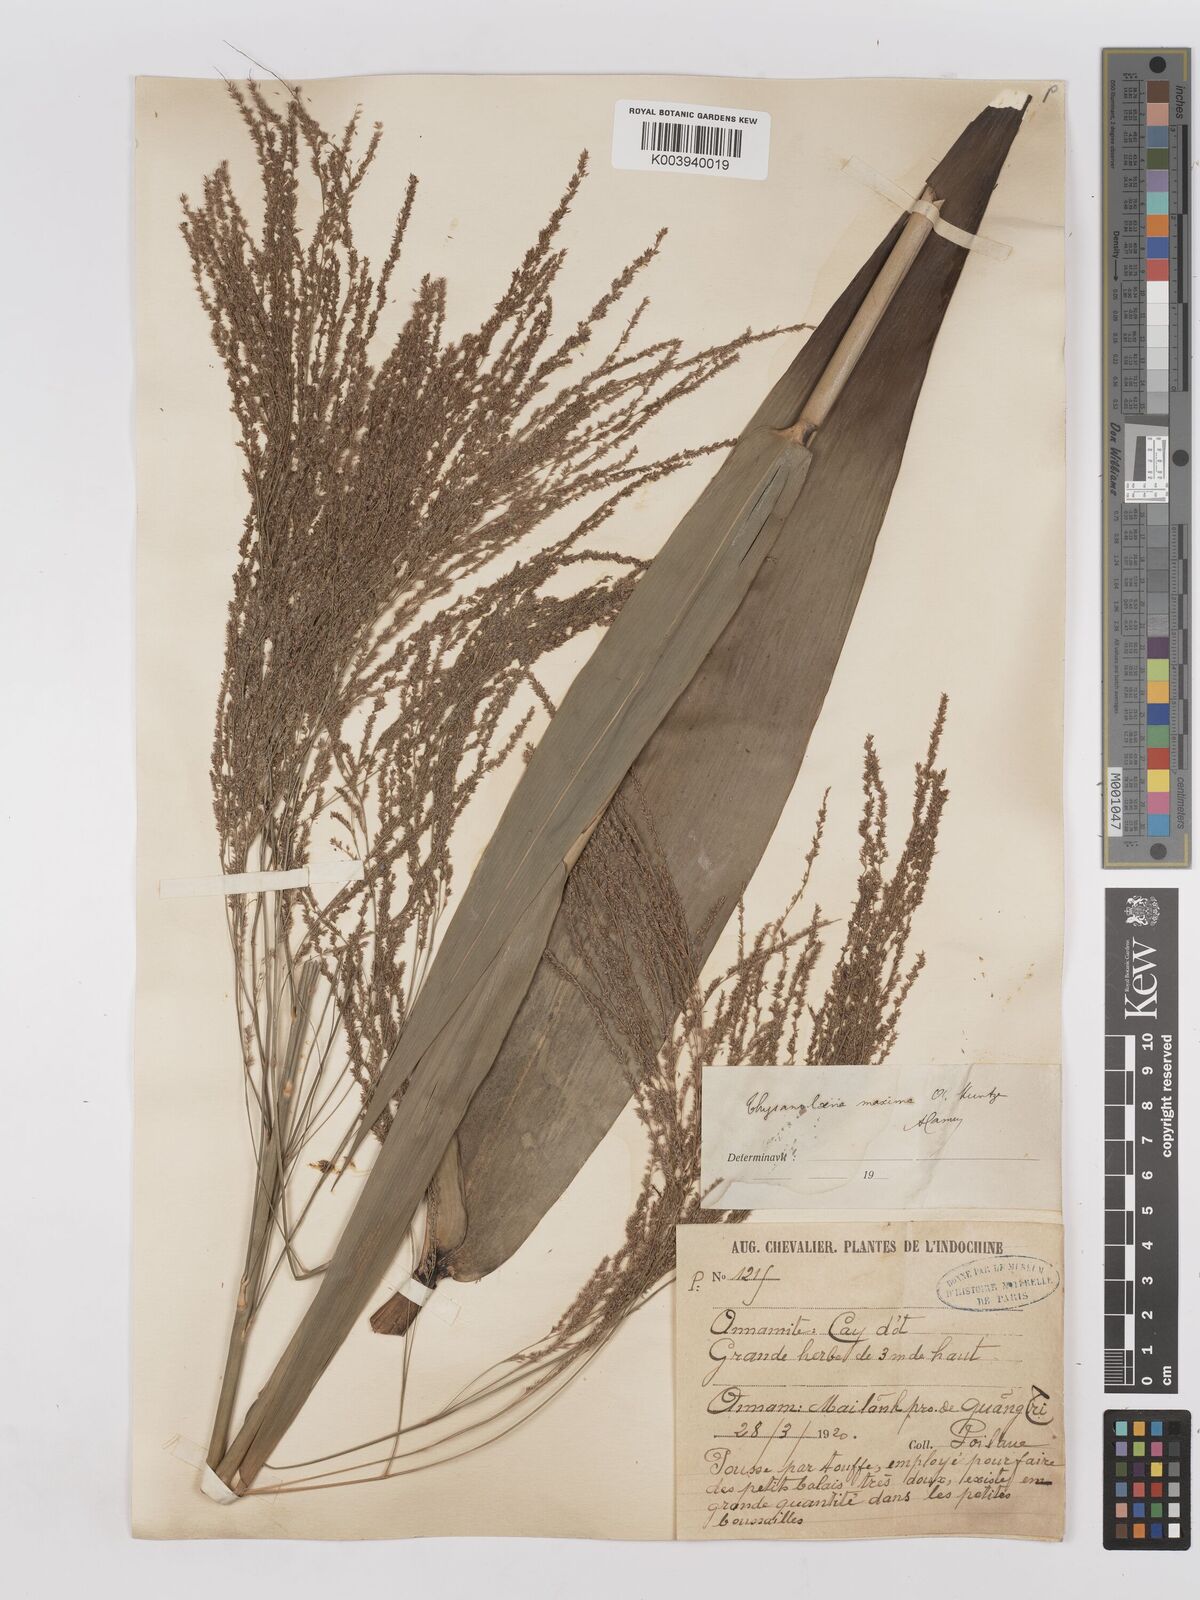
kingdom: Plantae
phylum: Tracheophyta
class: Liliopsida
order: Poales
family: Poaceae
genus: Thysanolaena
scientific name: Thysanolaena latifolia
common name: Tiger grass
